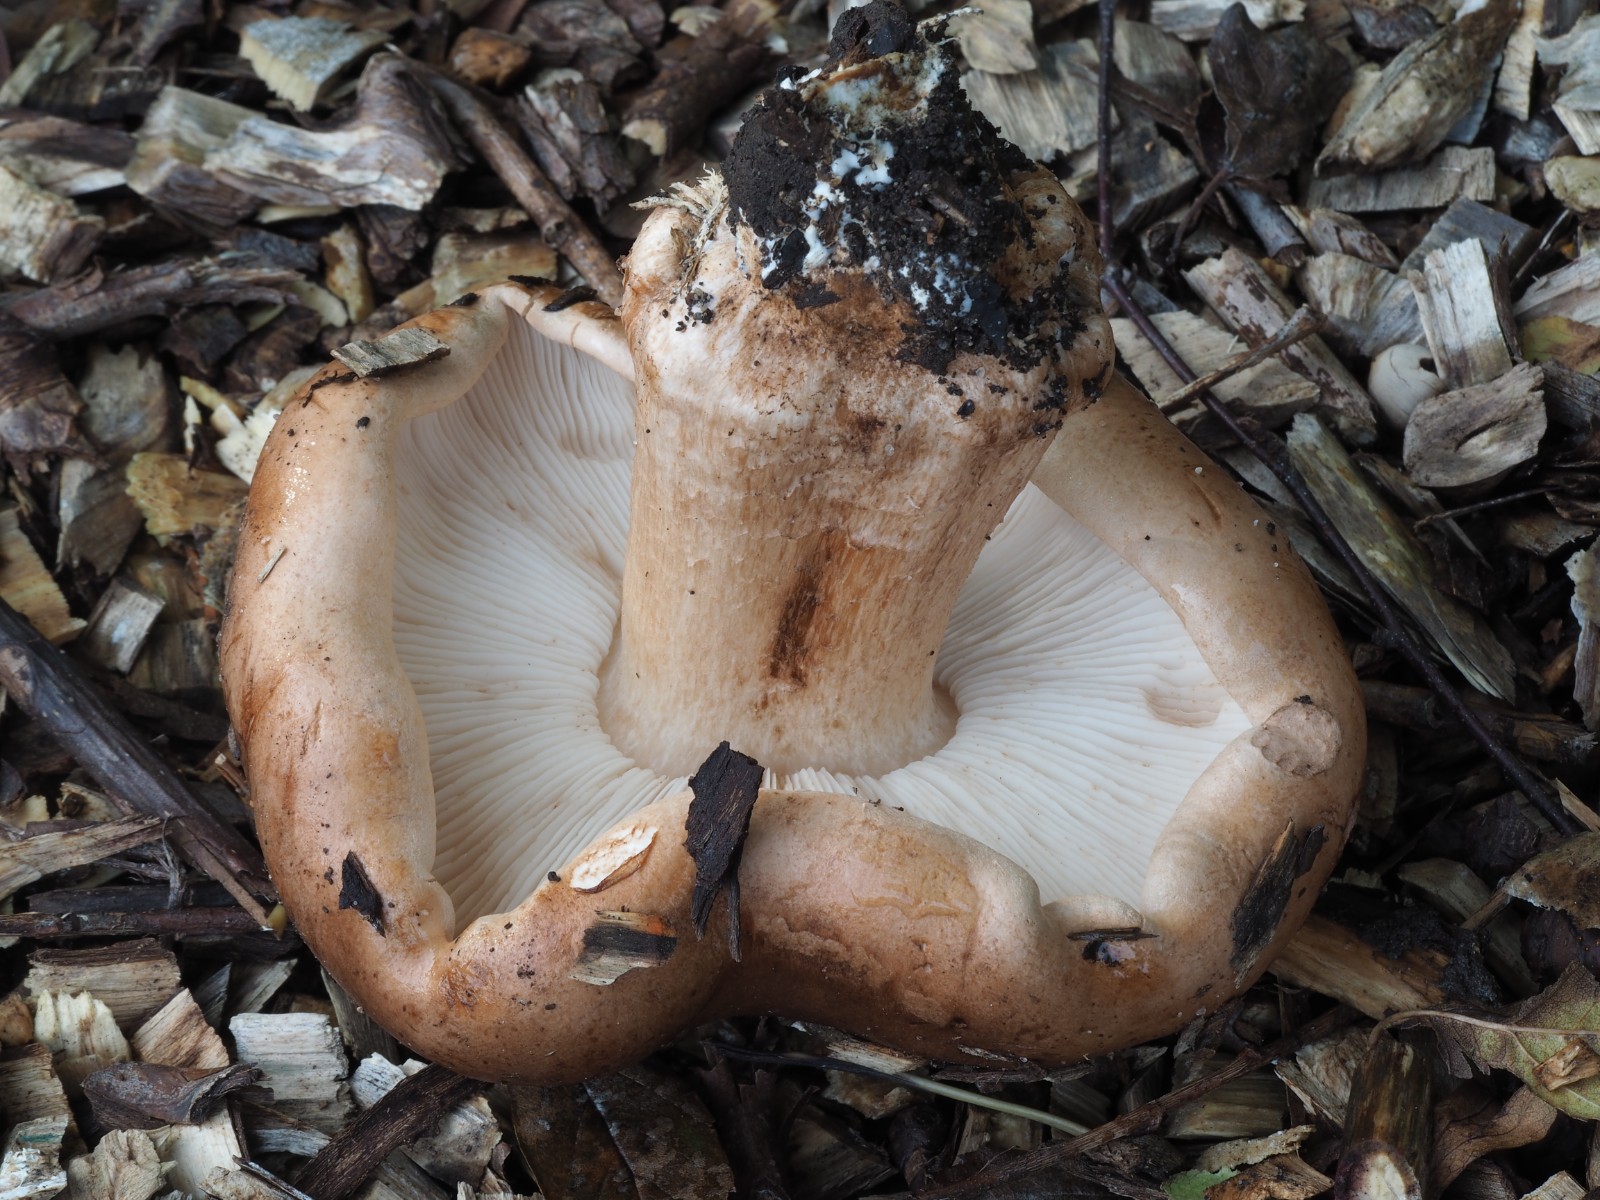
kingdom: Fungi
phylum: Basidiomycota
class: Agaricomycetes
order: Agaricales
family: Tricholomataceae
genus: Tricholoma
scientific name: Tricholoma populinum
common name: poppel-ridderhat
